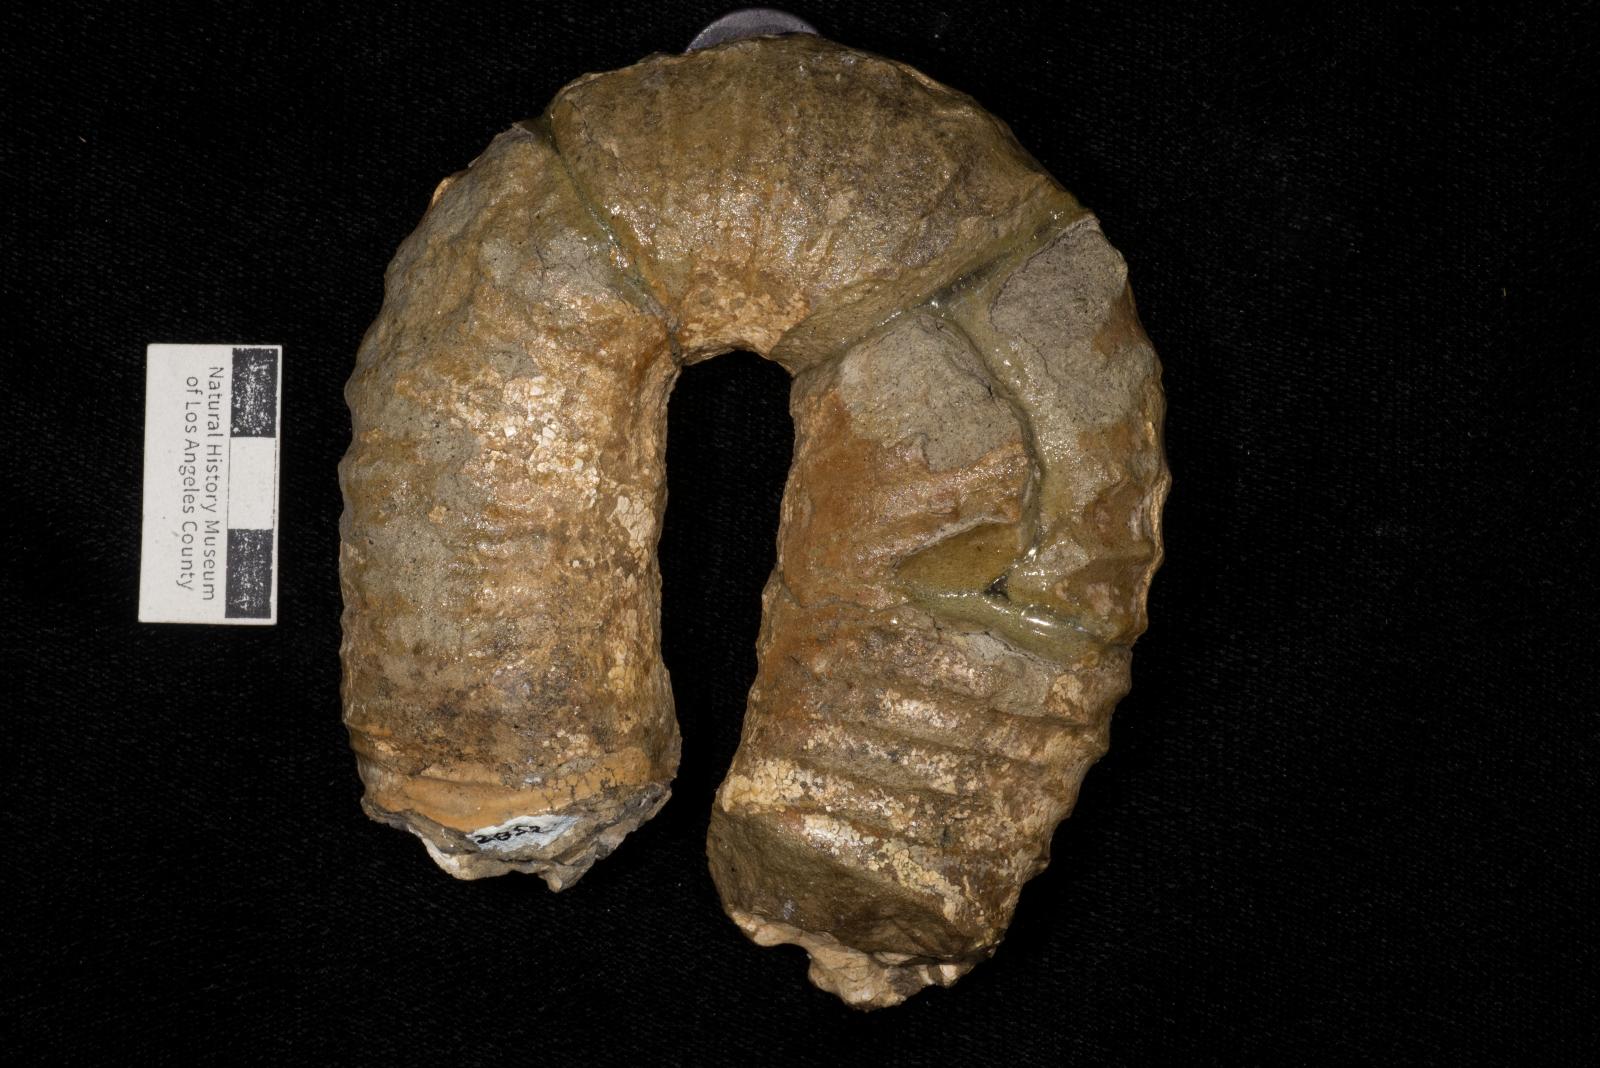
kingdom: Animalia
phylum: Mollusca
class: Cephalopoda
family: Nostoceratidae
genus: Didymoceras
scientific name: Didymoceras draconis
